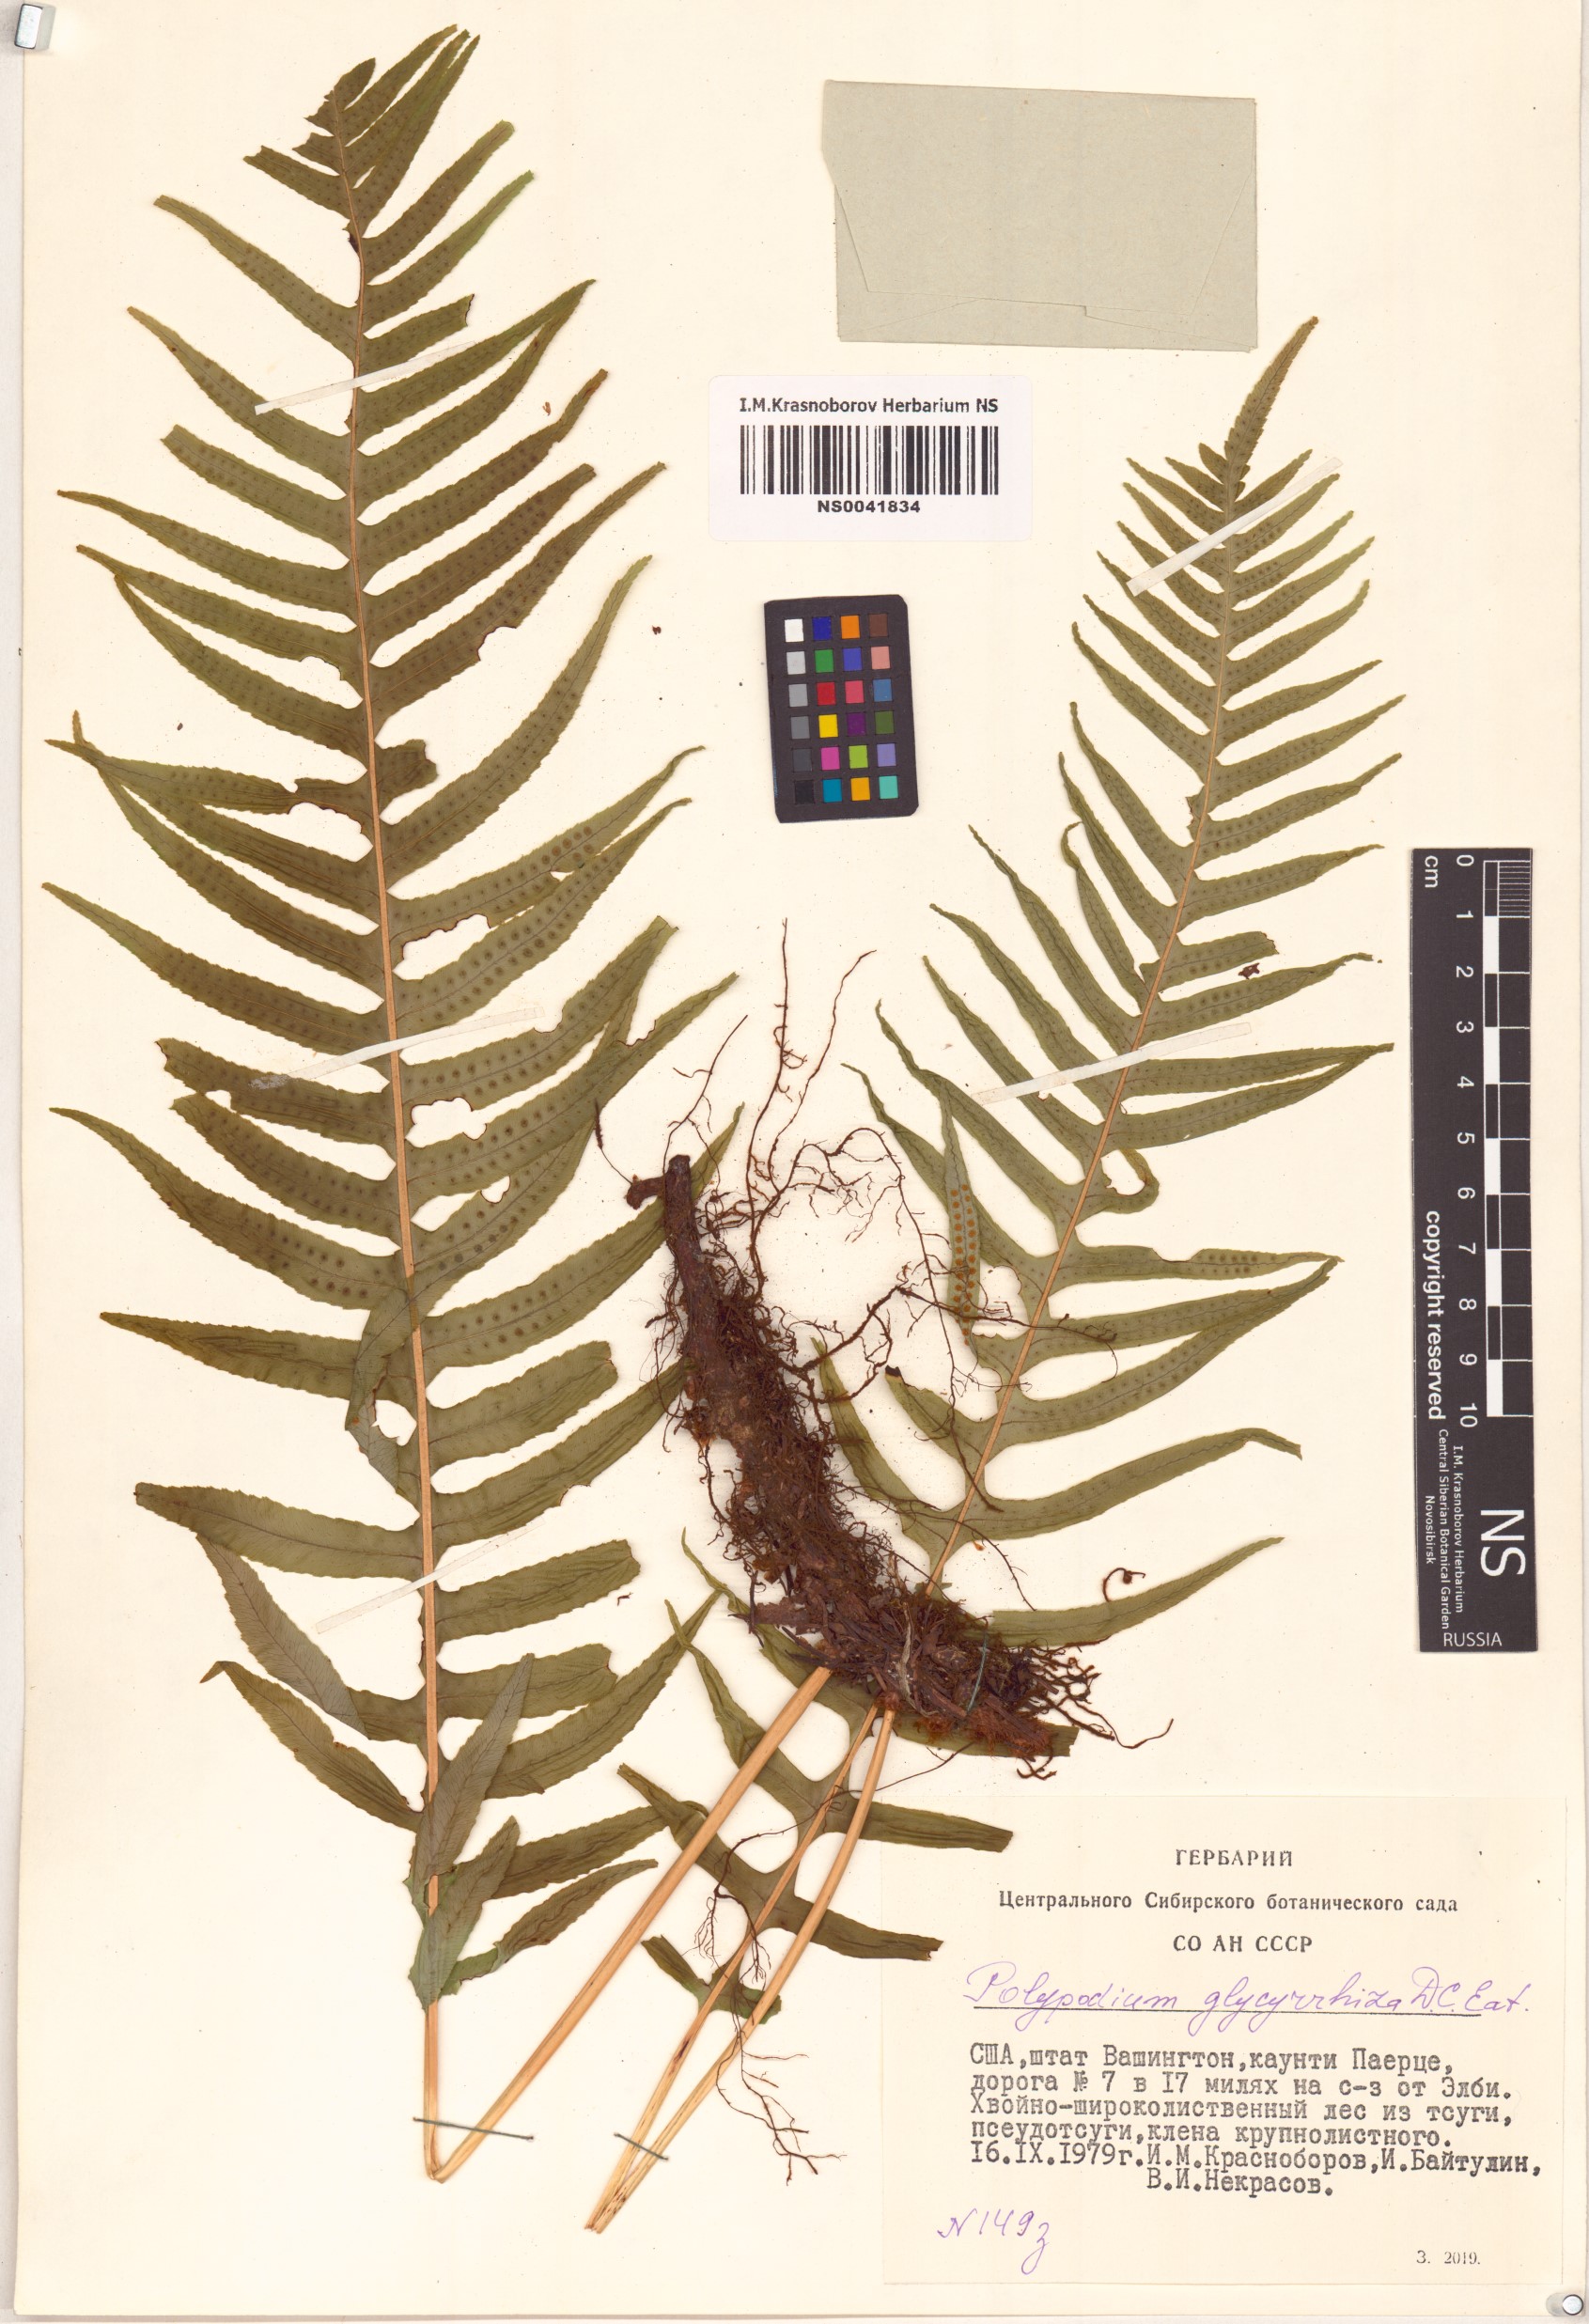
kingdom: Plantae
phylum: Tracheophyta
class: Polypodiopsida
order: Polypodiales
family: Polypodiaceae
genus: Polypodium
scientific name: Polypodium glycyrrhiza
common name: Licorice fern
